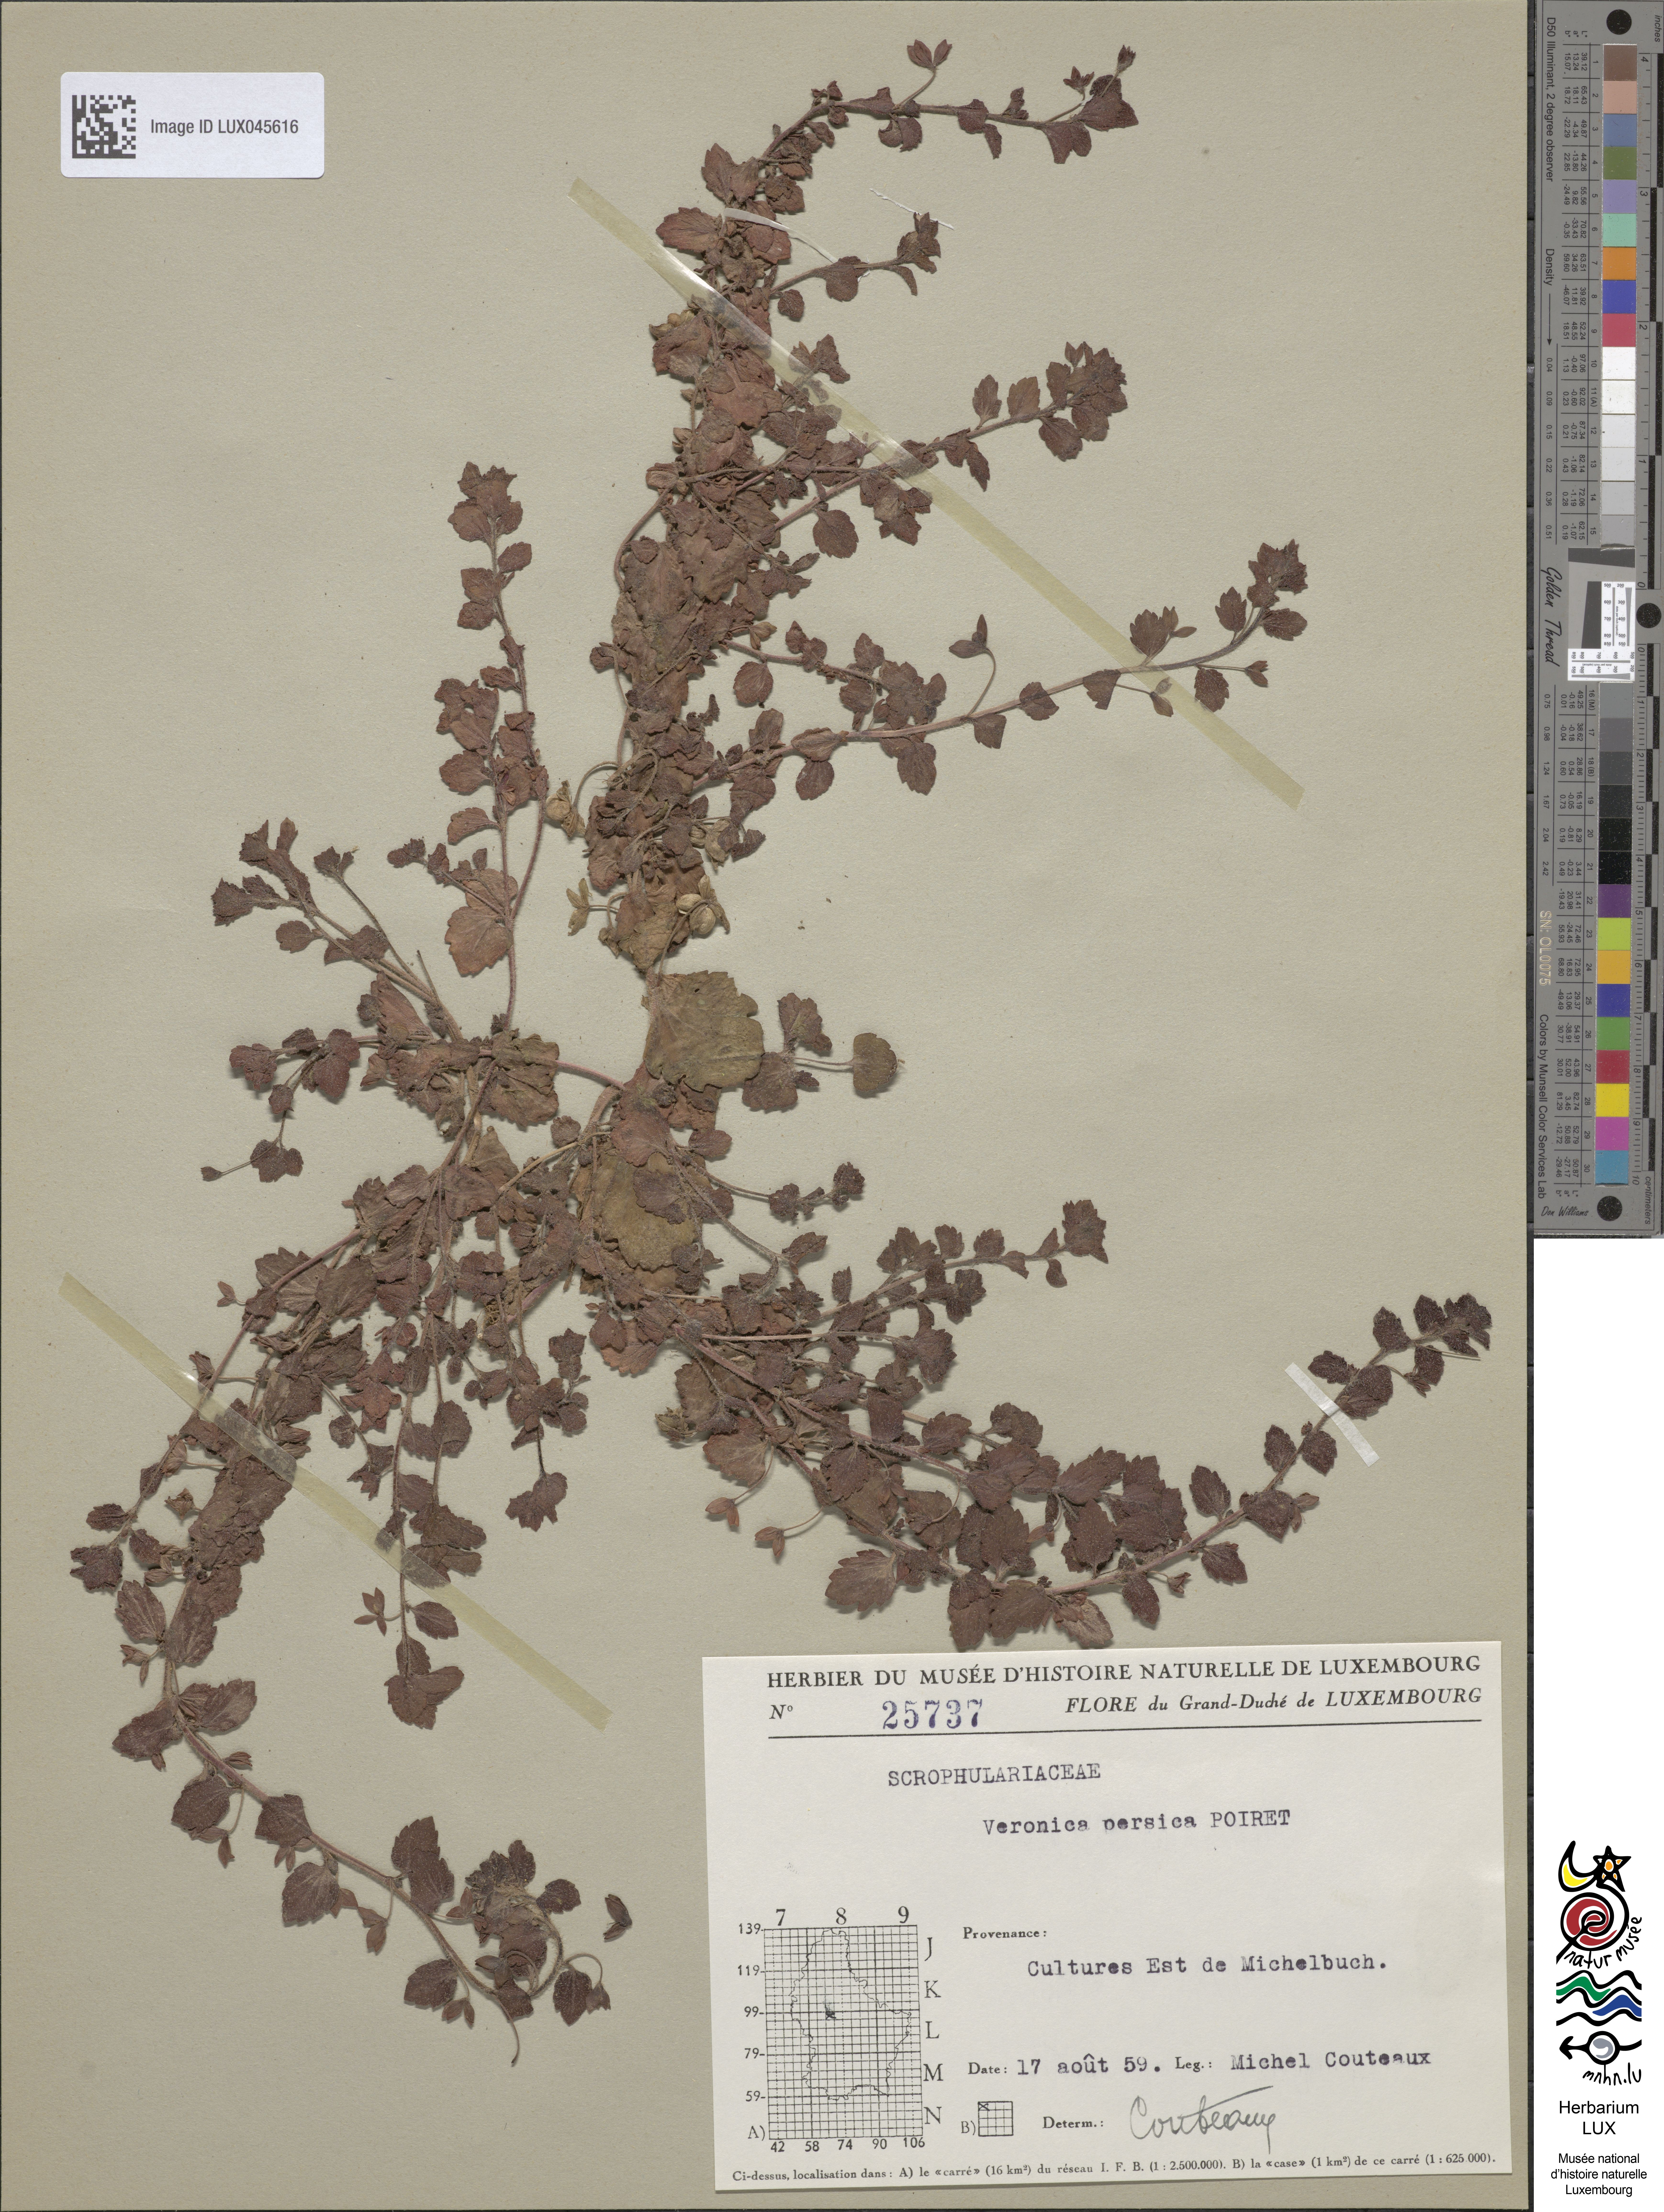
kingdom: Plantae
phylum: Tracheophyta
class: Magnoliopsida
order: Lamiales
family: Plantaginaceae
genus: Veronica
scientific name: Veronica persica
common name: Common field-speedwell
